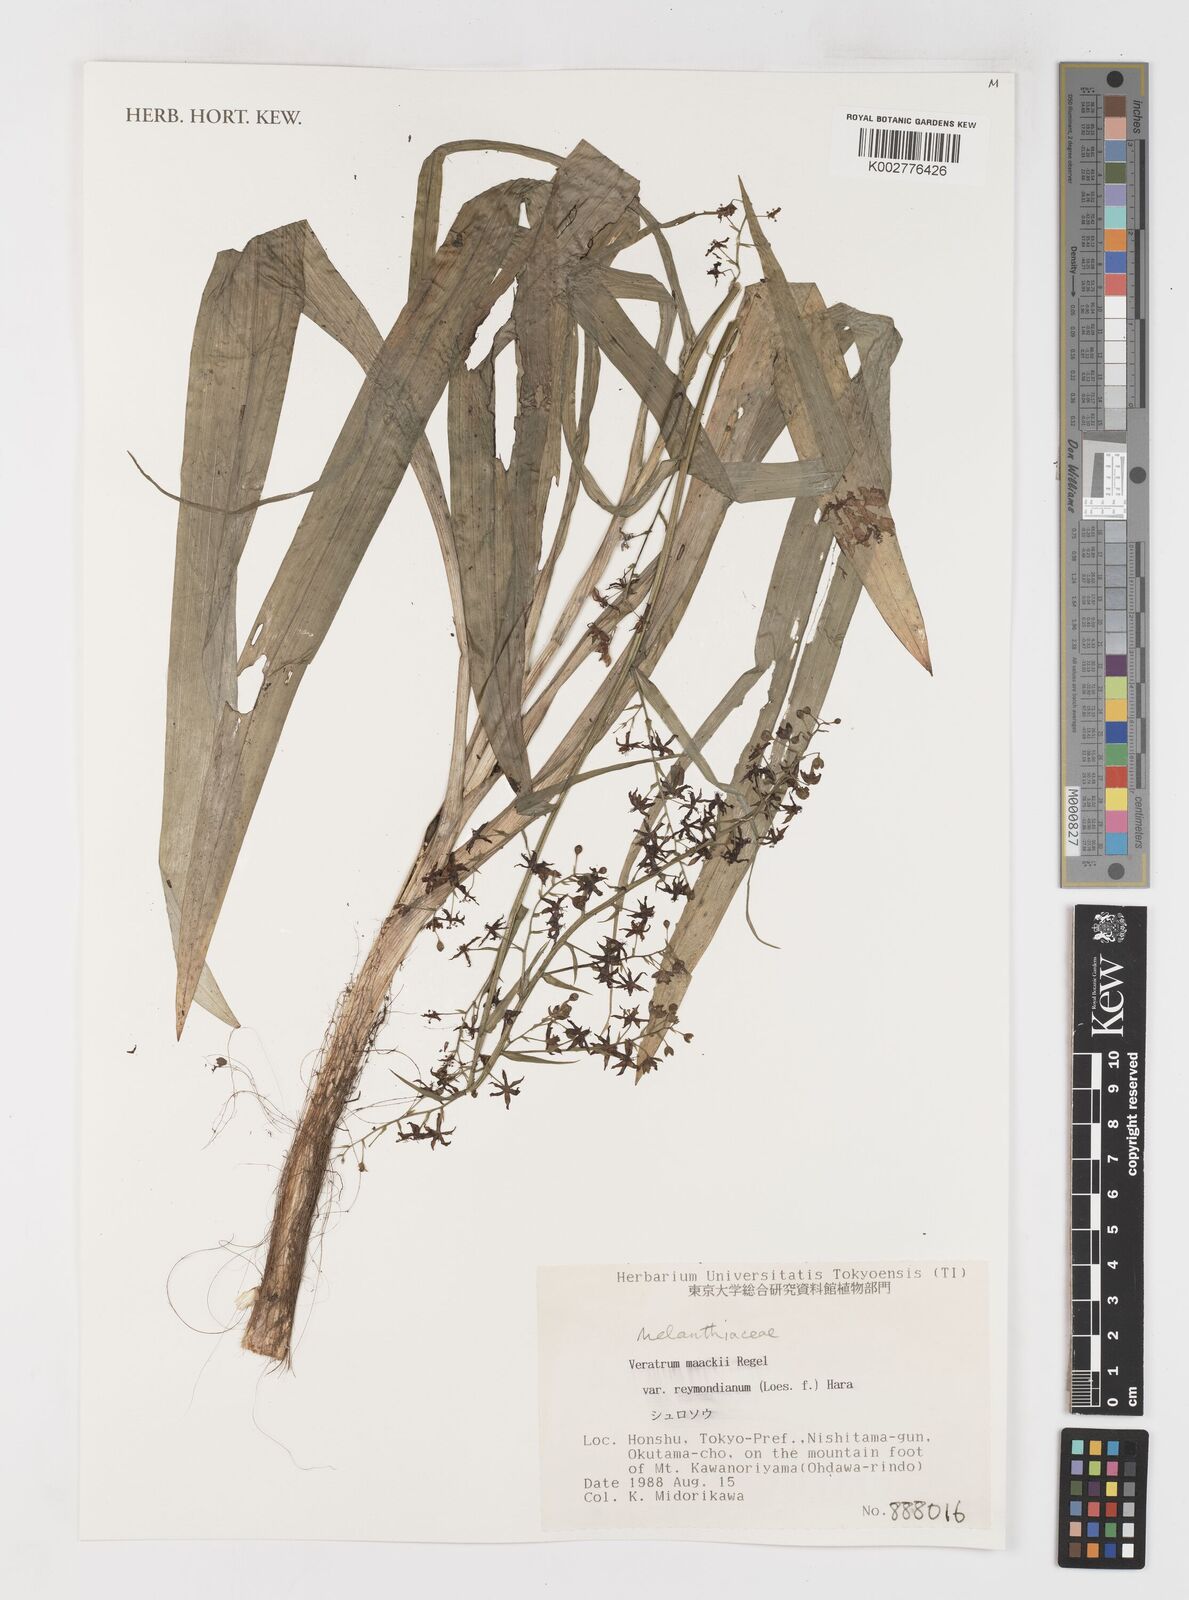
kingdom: Plantae
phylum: Tracheophyta
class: Liliopsida
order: Liliales
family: Melanthiaceae
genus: Veratrum
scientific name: Veratrum maackii
